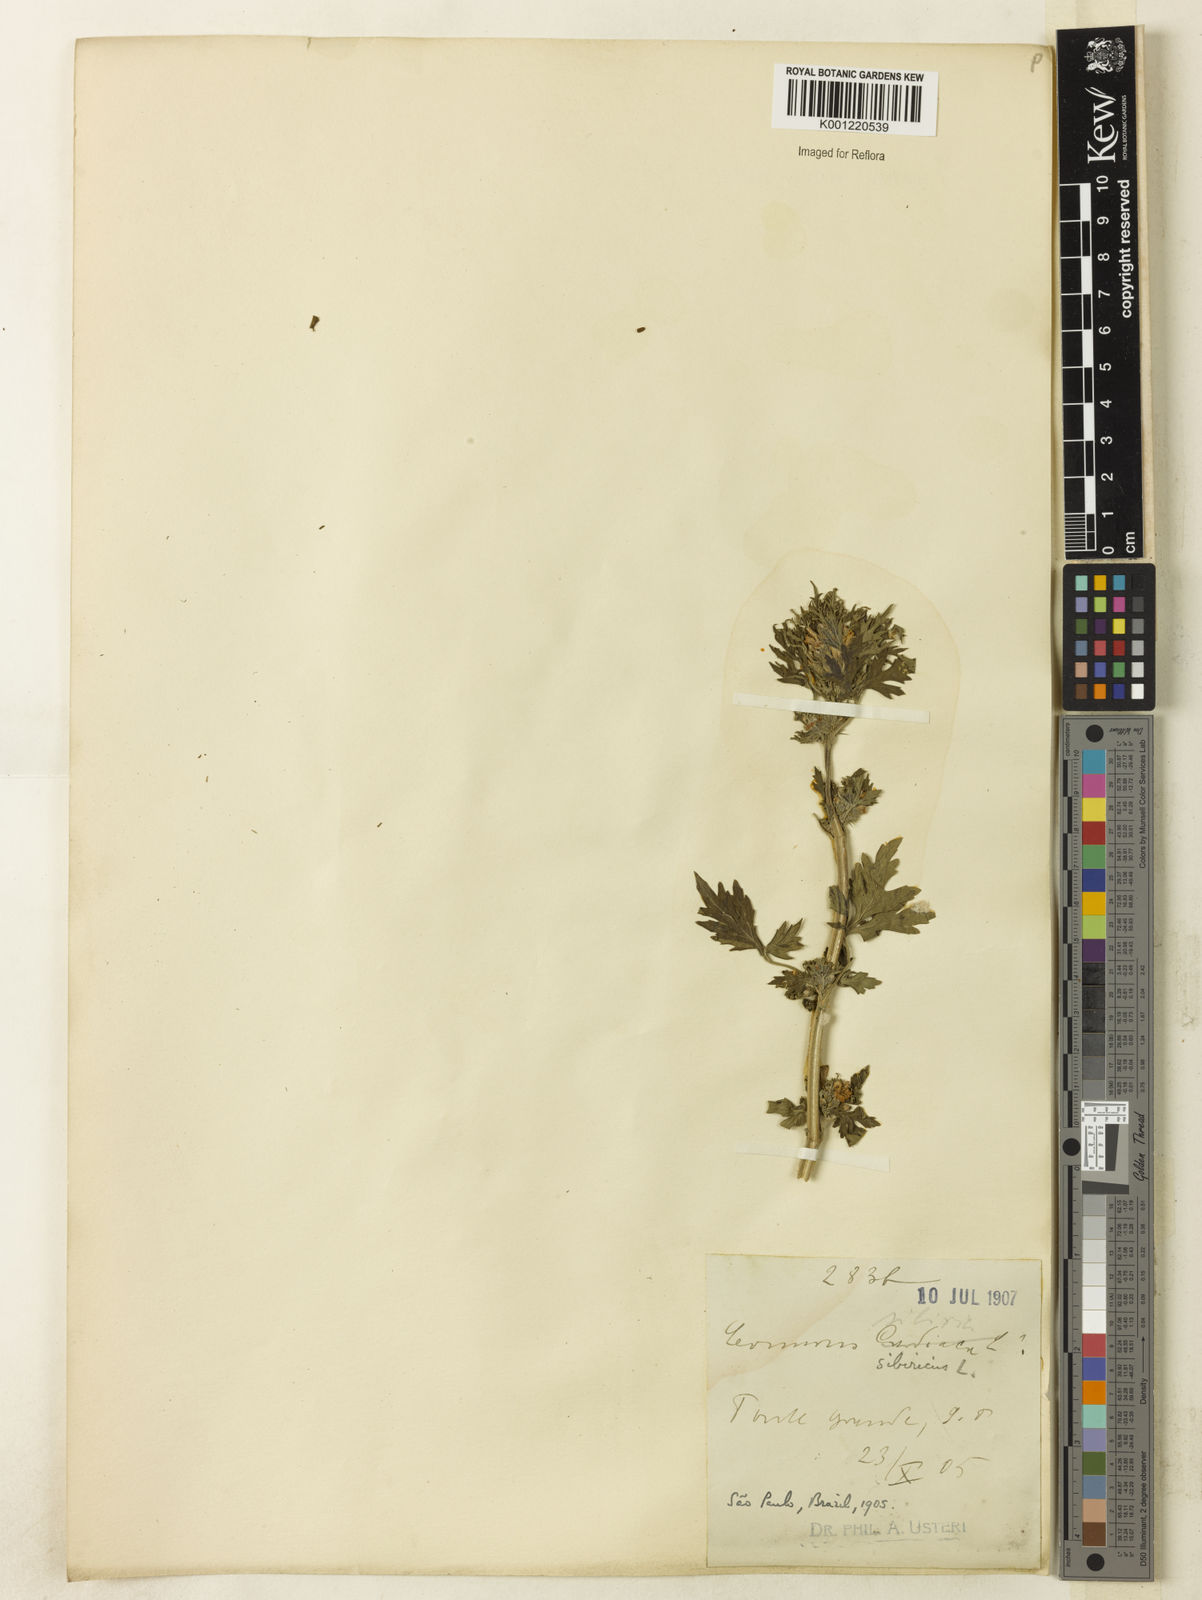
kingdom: Plantae
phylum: Tracheophyta
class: Magnoliopsida
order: Lamiales
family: Lamiaceae
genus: Leonurus
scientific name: Leonurus japonicus
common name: Honeyweed
